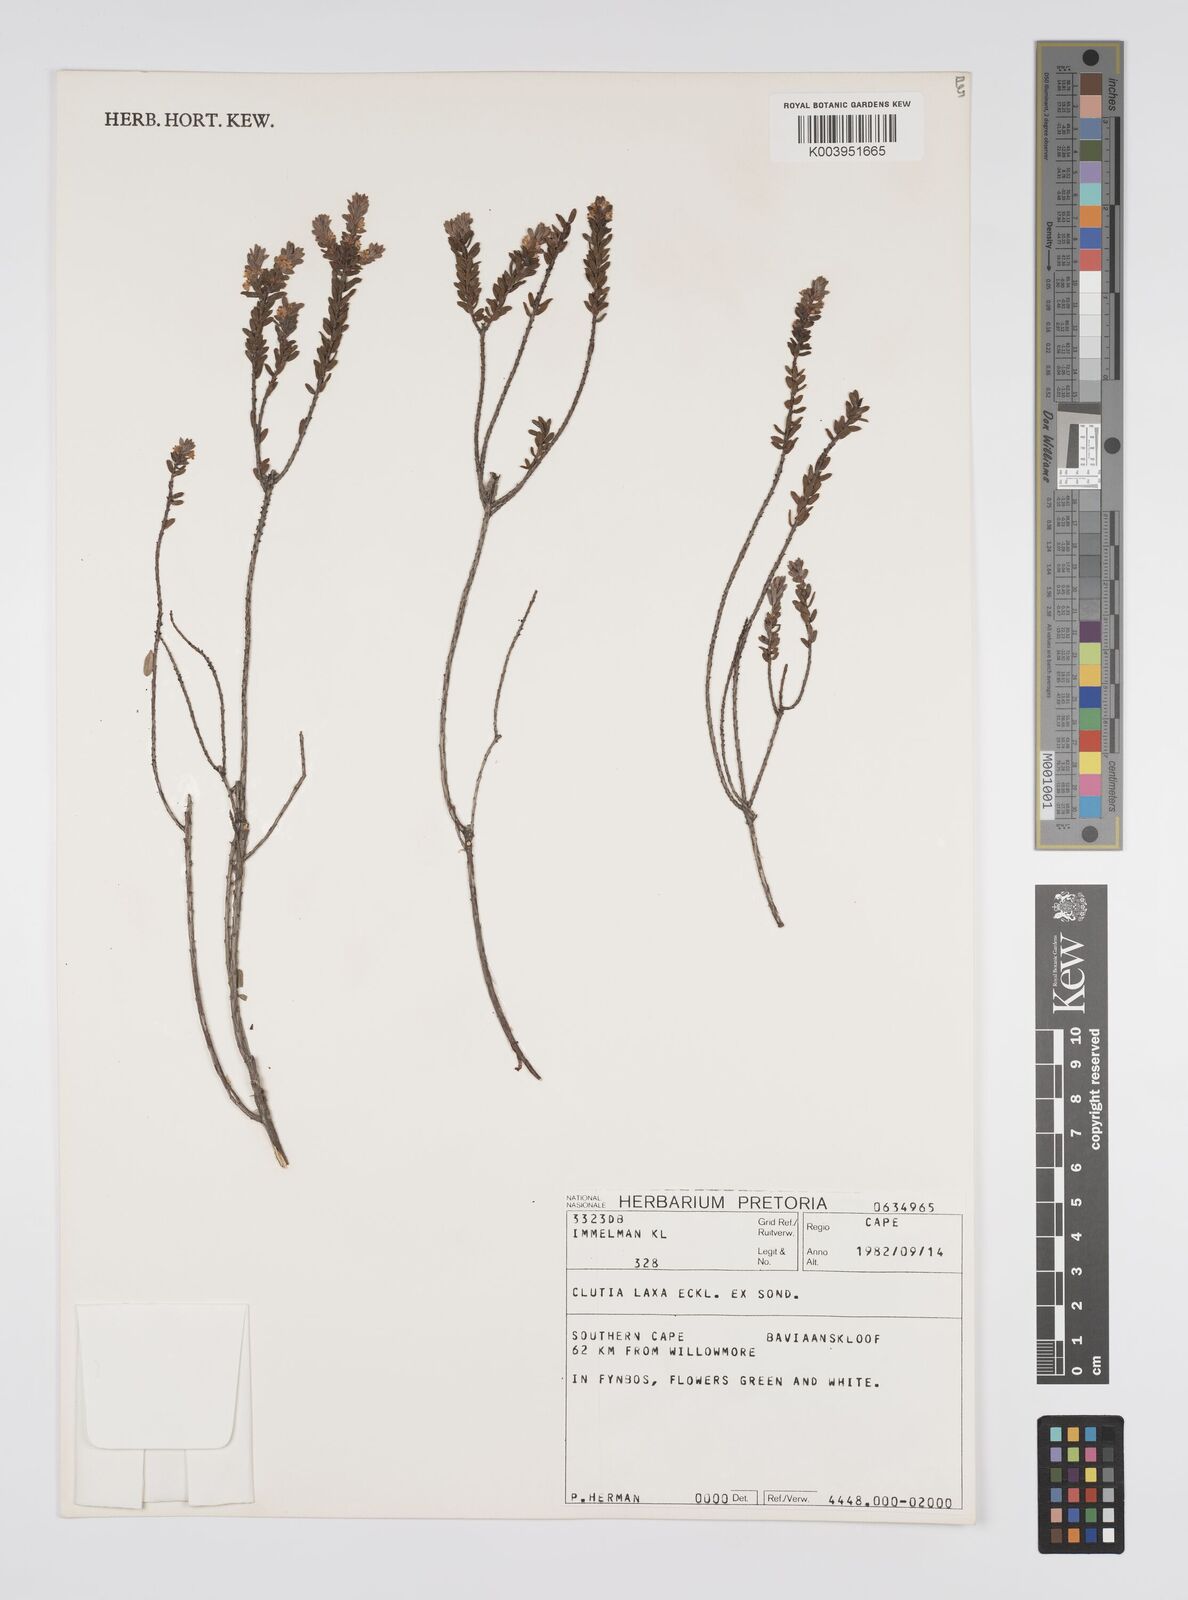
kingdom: Plantae
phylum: Tracheophyta
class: Magnoliopsida
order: Malpighiales
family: Peraceae
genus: Clutia
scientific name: Clutia laxa
